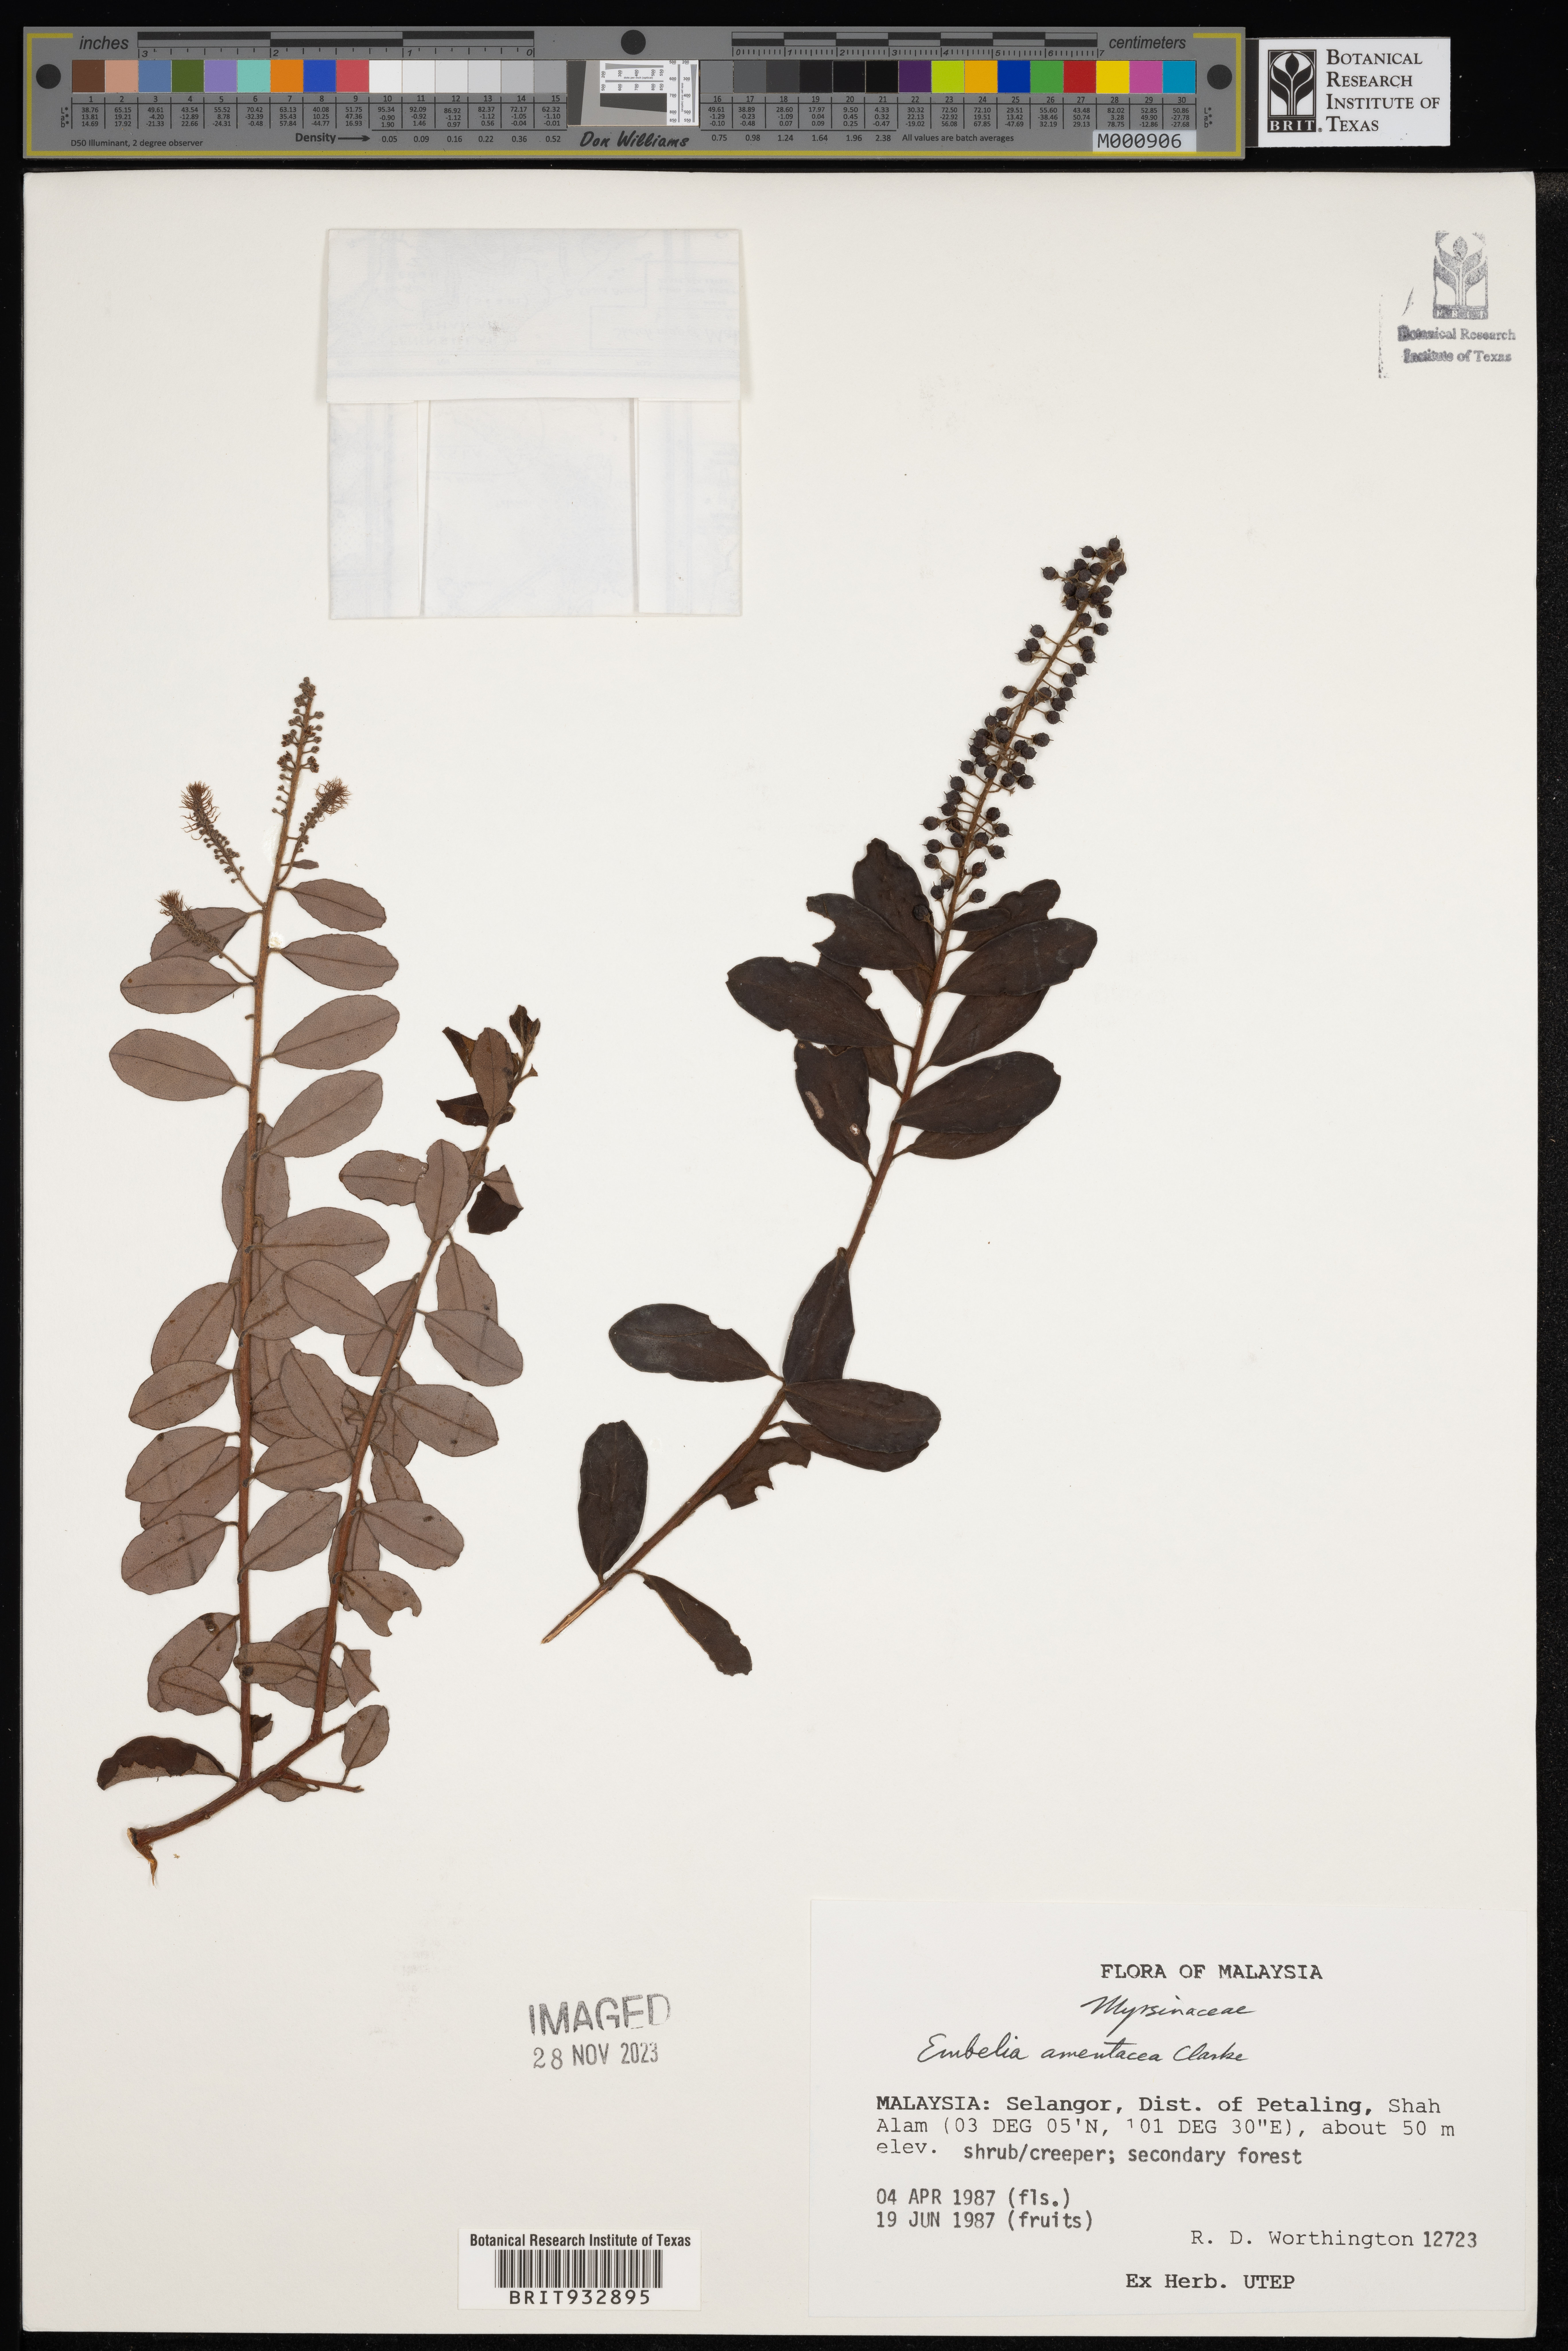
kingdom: Plantae
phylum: Tracheophyta
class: Magnoliopsida
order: Ericales
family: Primulaceae
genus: Embelia
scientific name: Embelia
